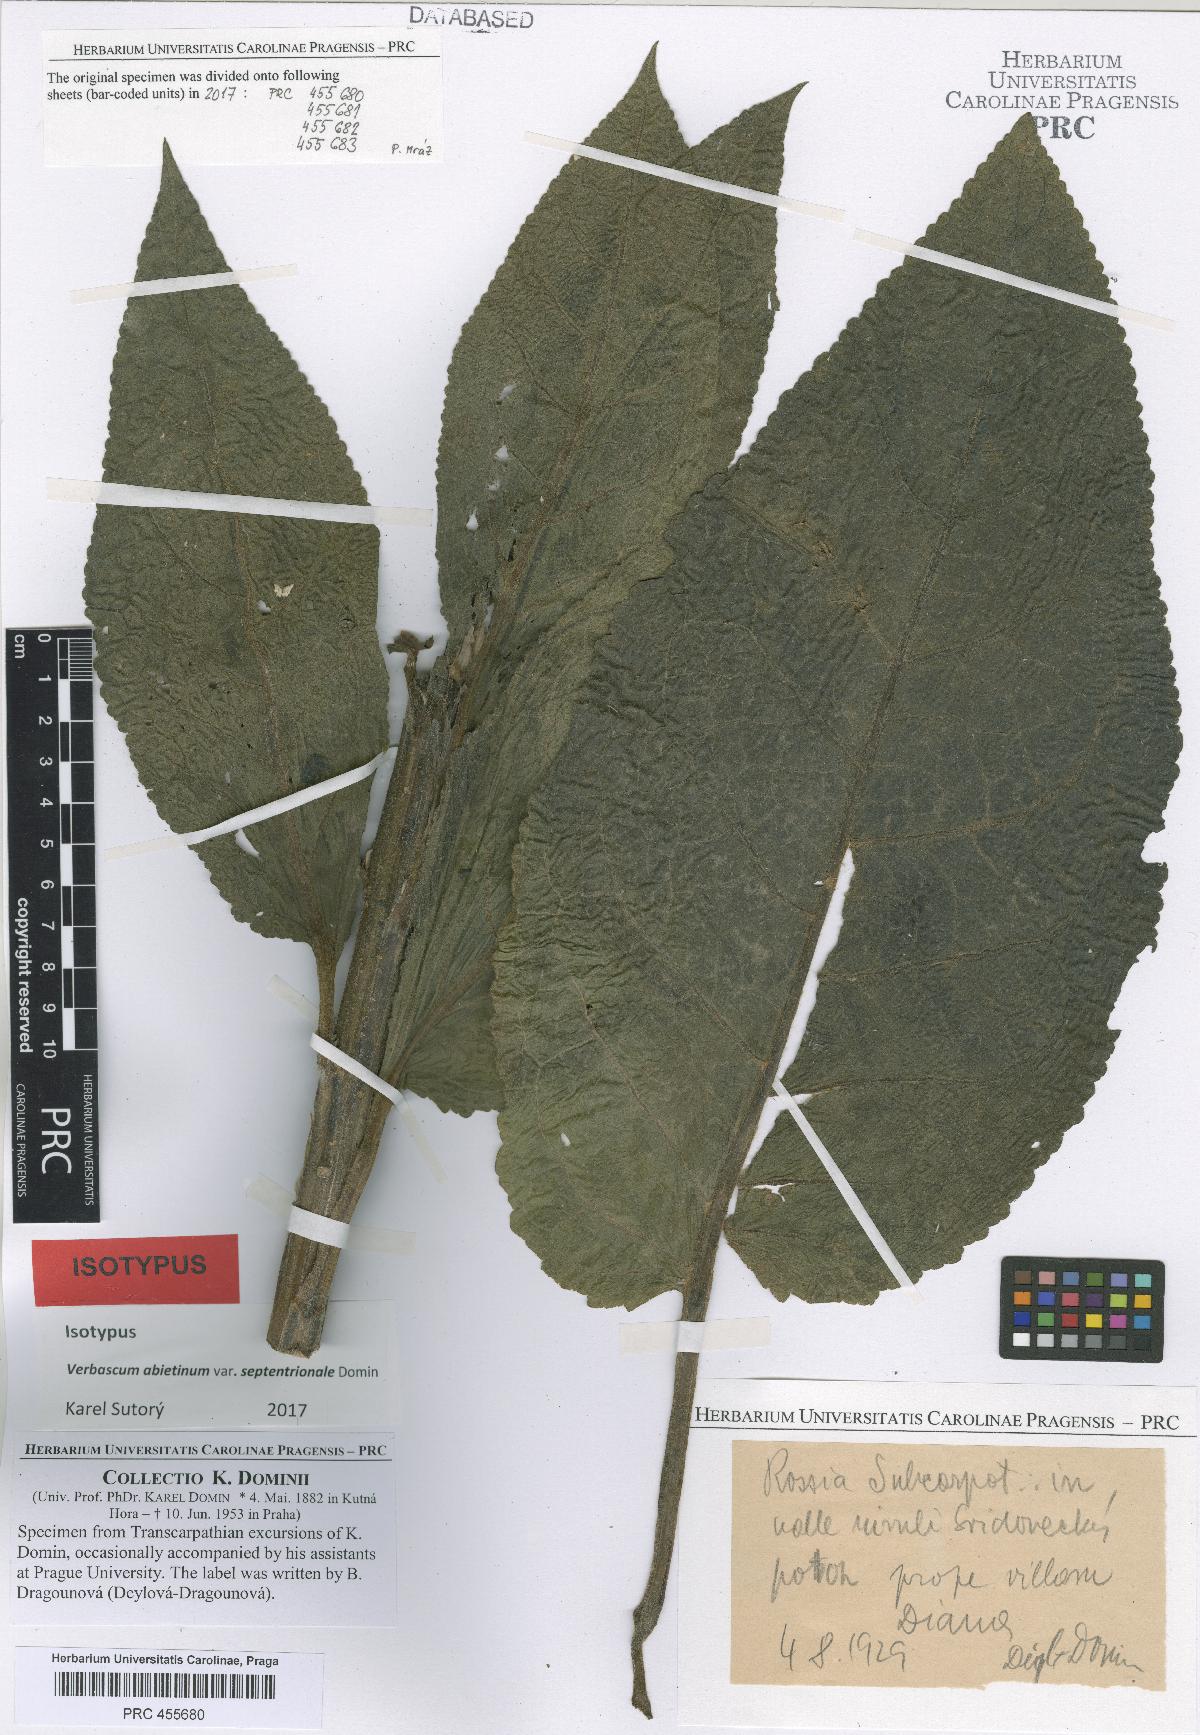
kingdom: Plantae
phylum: Tracheophyta
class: Magnoliopsida
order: Lamiales
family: Scrophulariaceae
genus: Verbascum
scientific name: Verbascum nigrum
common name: Dark mullein
